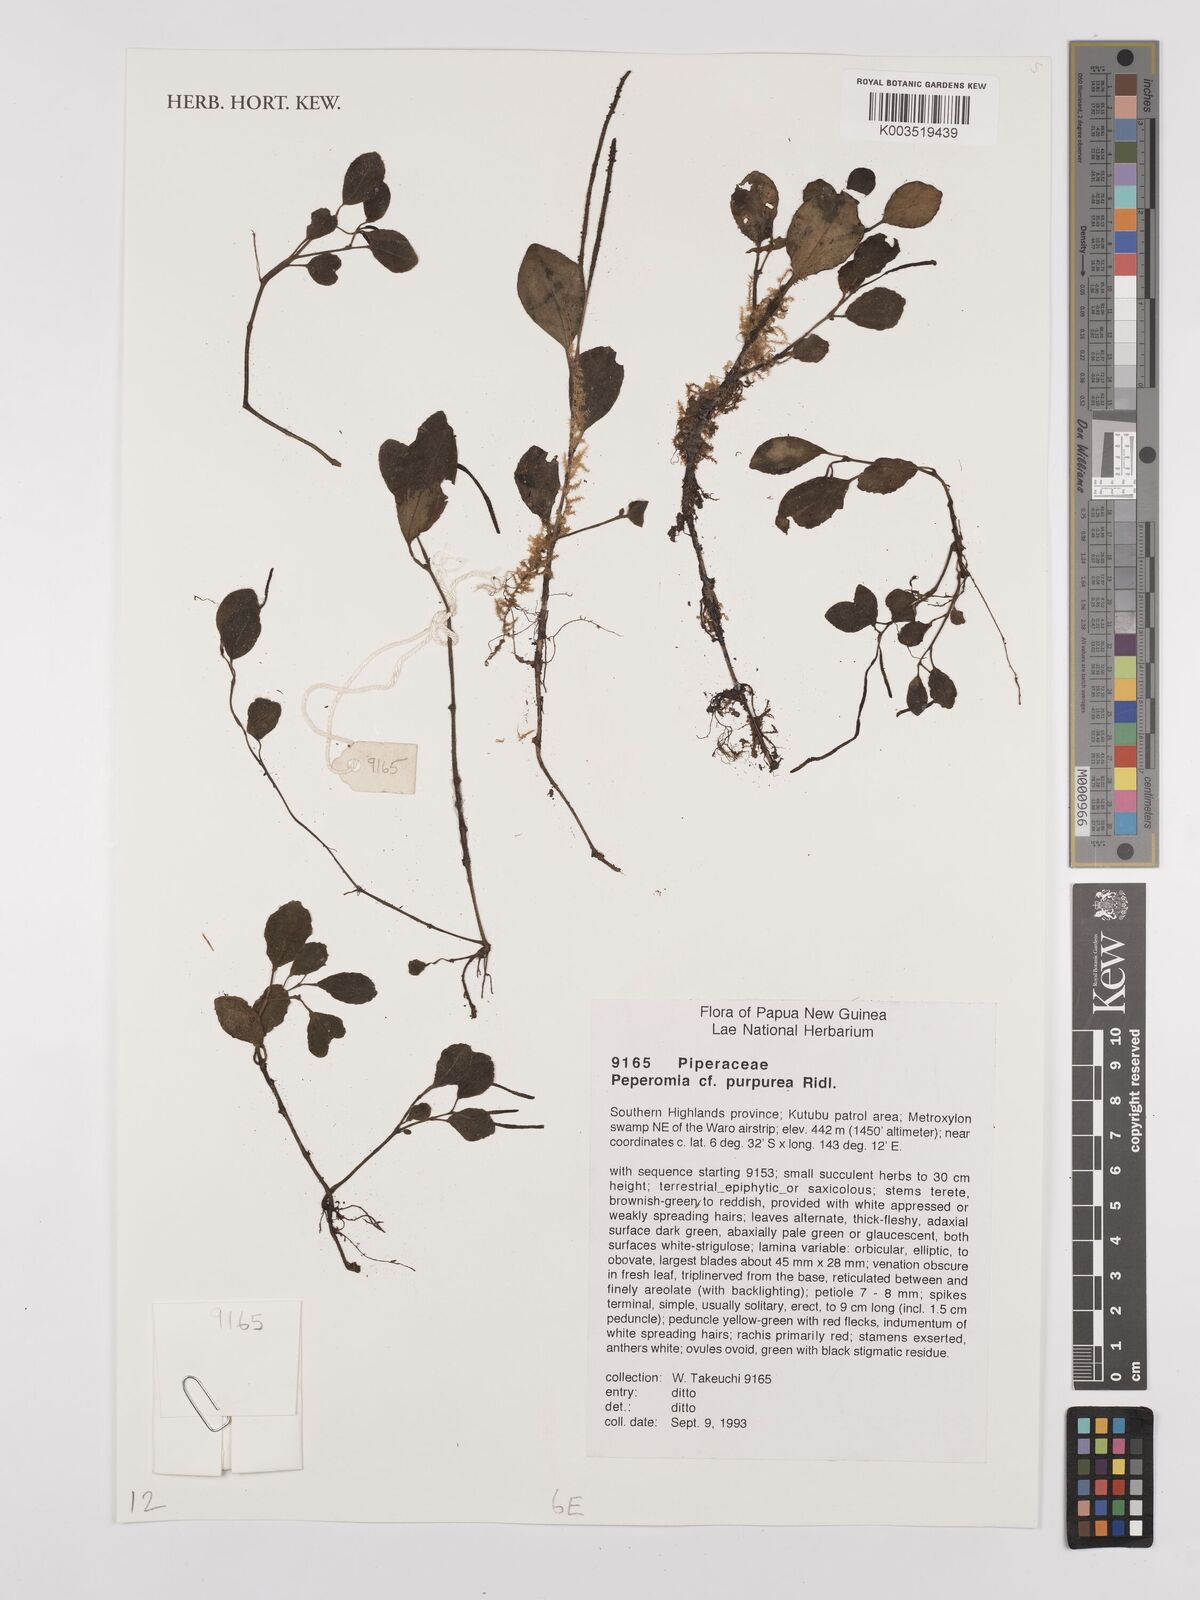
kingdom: Plantae
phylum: Tracheophyta
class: Magnoliopsida
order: Piperales
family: Piperaceae
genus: Peperomia
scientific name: Peperomia colossina
